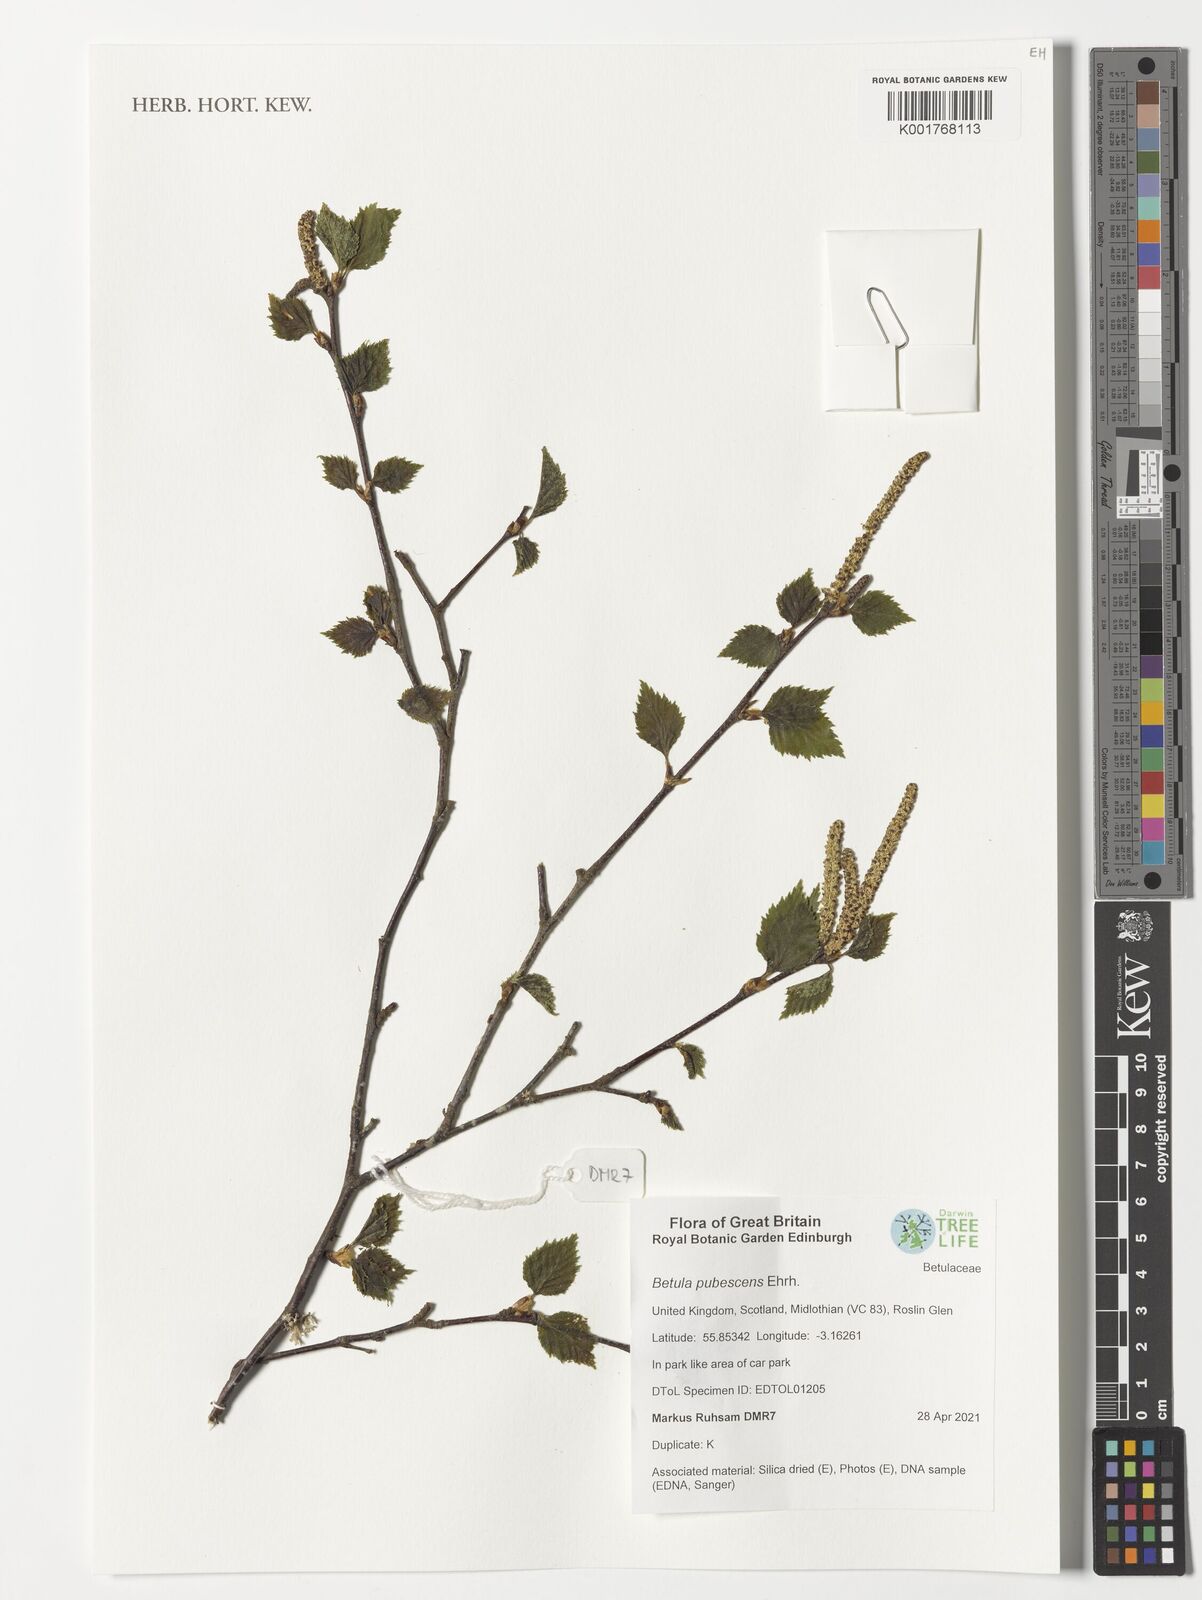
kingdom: Plantae
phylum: Tracheophyta
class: Magnoliopsida
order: Fagales
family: Betulaceae
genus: Betula
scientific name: Betula pubescens
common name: Downy birch
